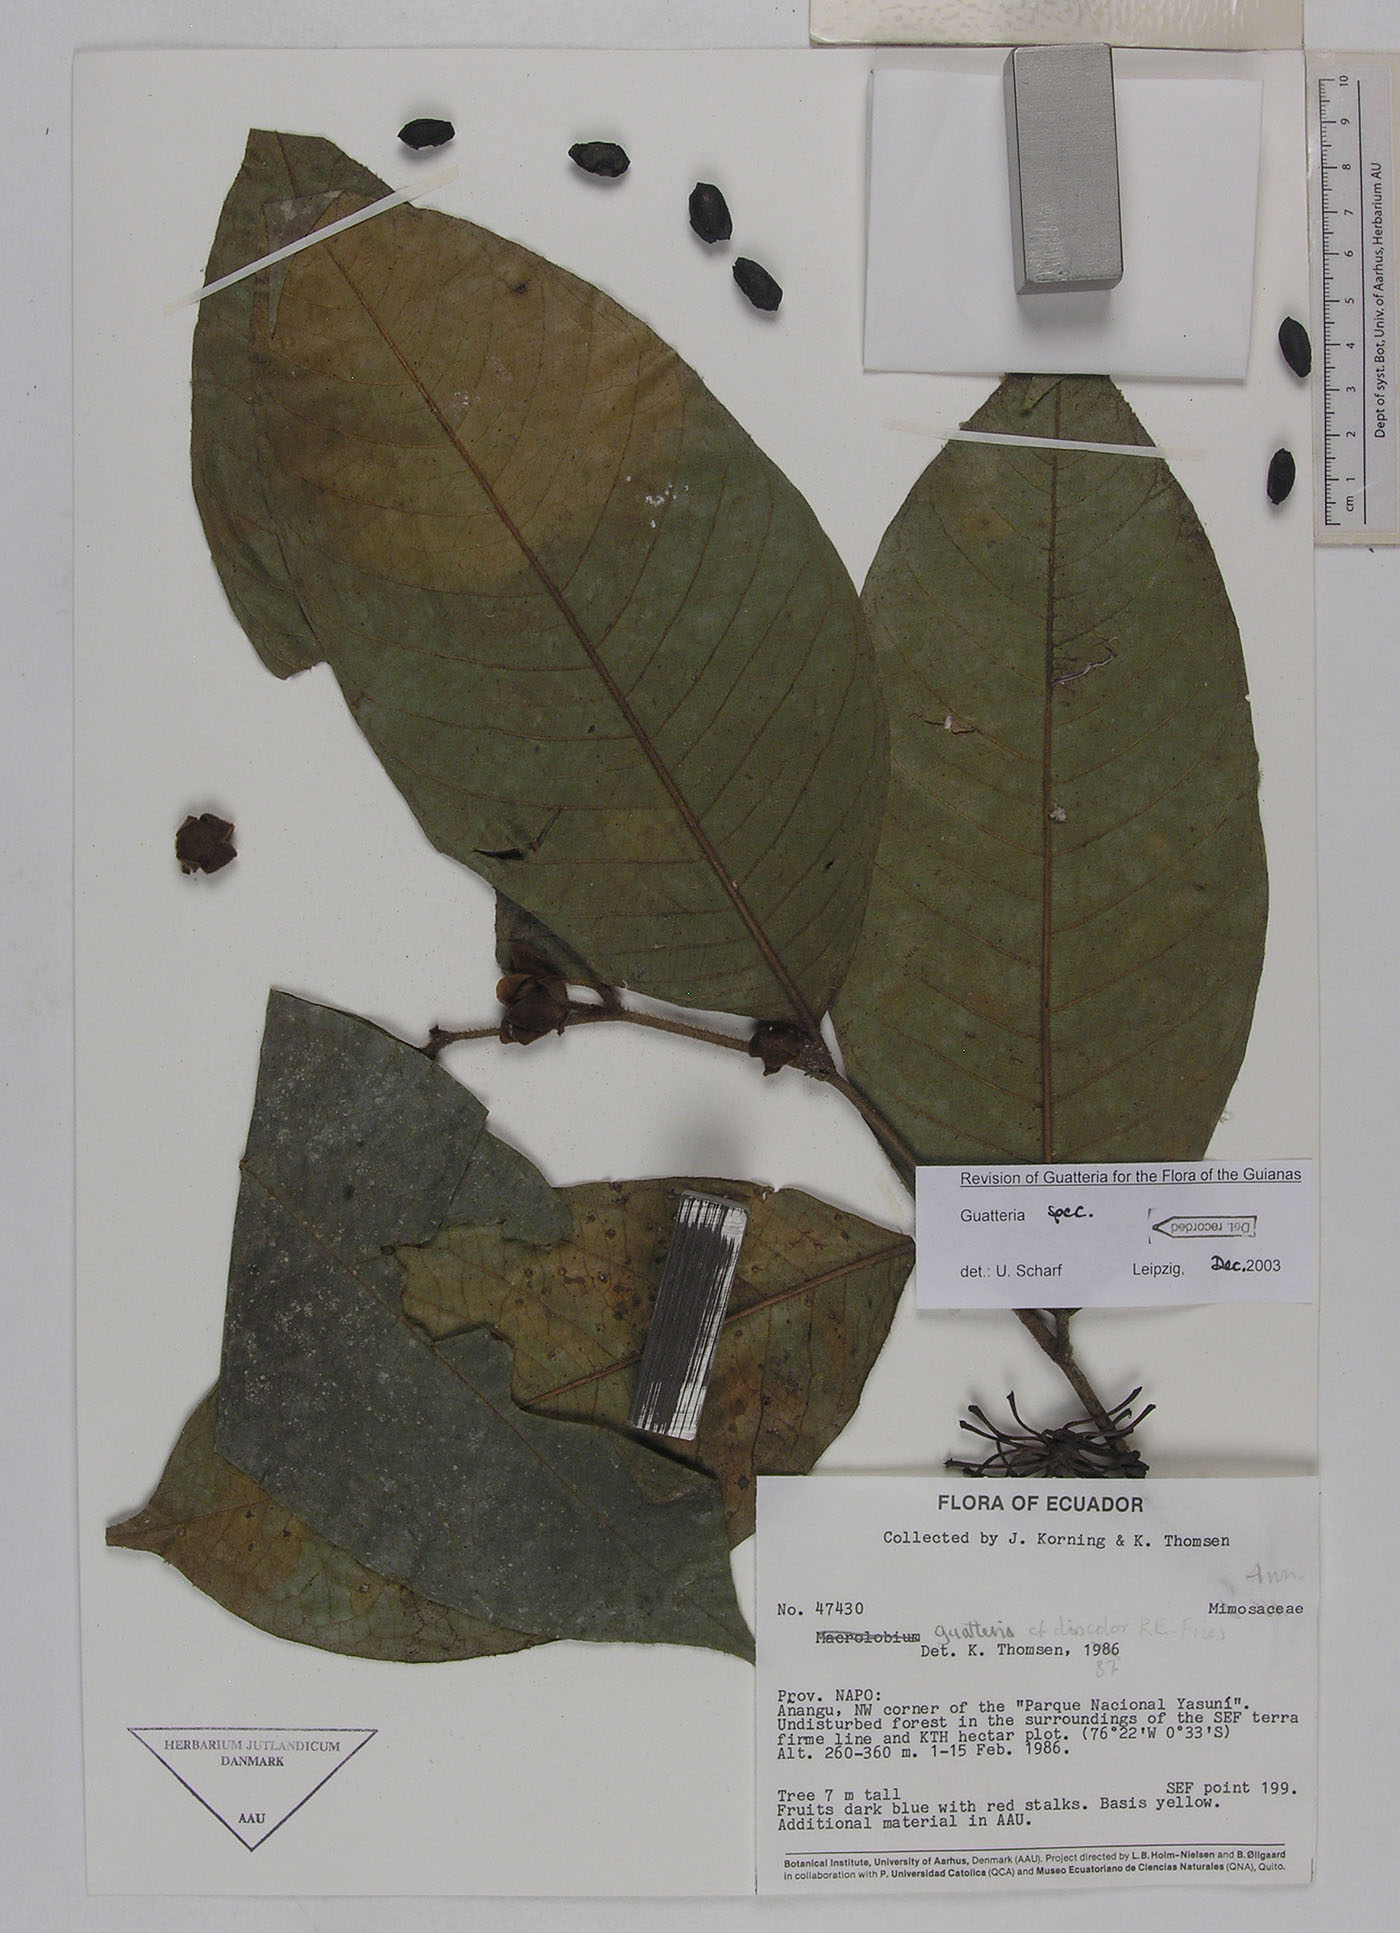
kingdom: Plantae
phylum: Tracheophyta
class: Magnoliopsida
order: Magnoliales
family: Annonaceae
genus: Guatteria
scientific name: Guatteria blepharophylla
